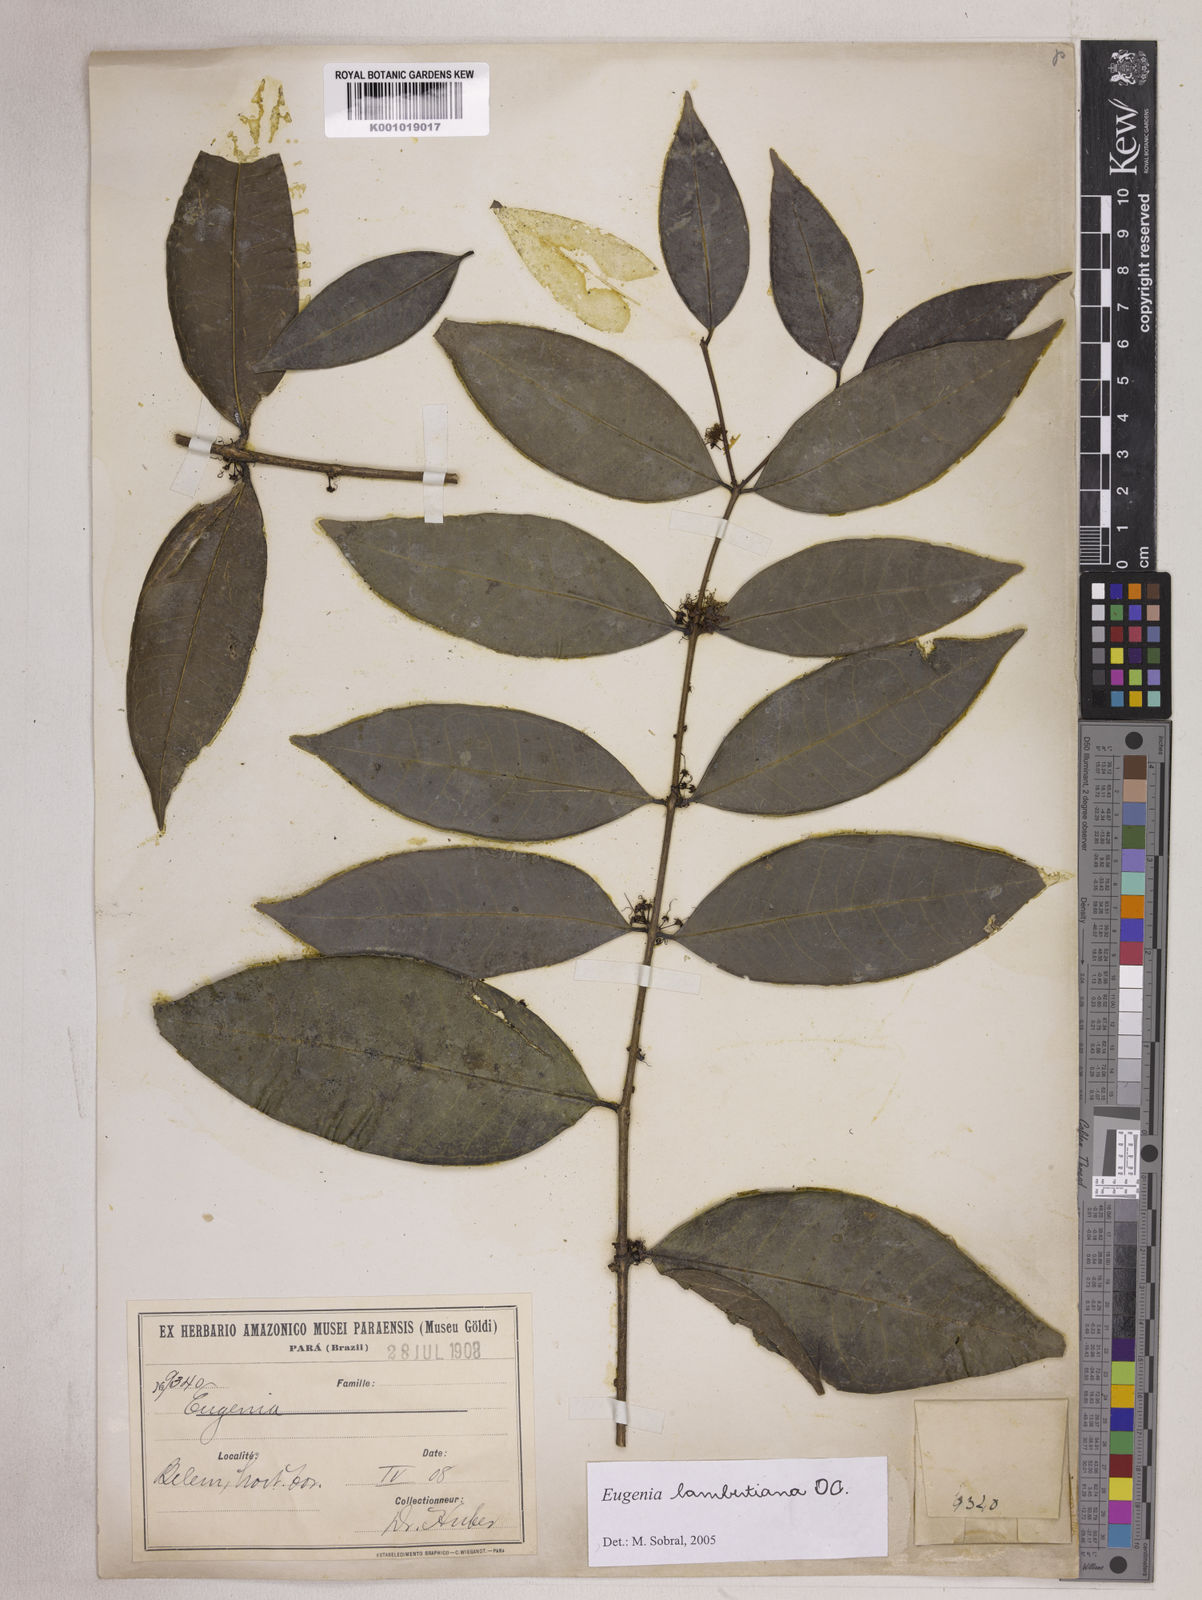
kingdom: Plantae
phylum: Tracheophyta
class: Magnoliopsida
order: Myrtales
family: Myrtaceae
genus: Eugenia
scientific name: Eugenia lambertiana
